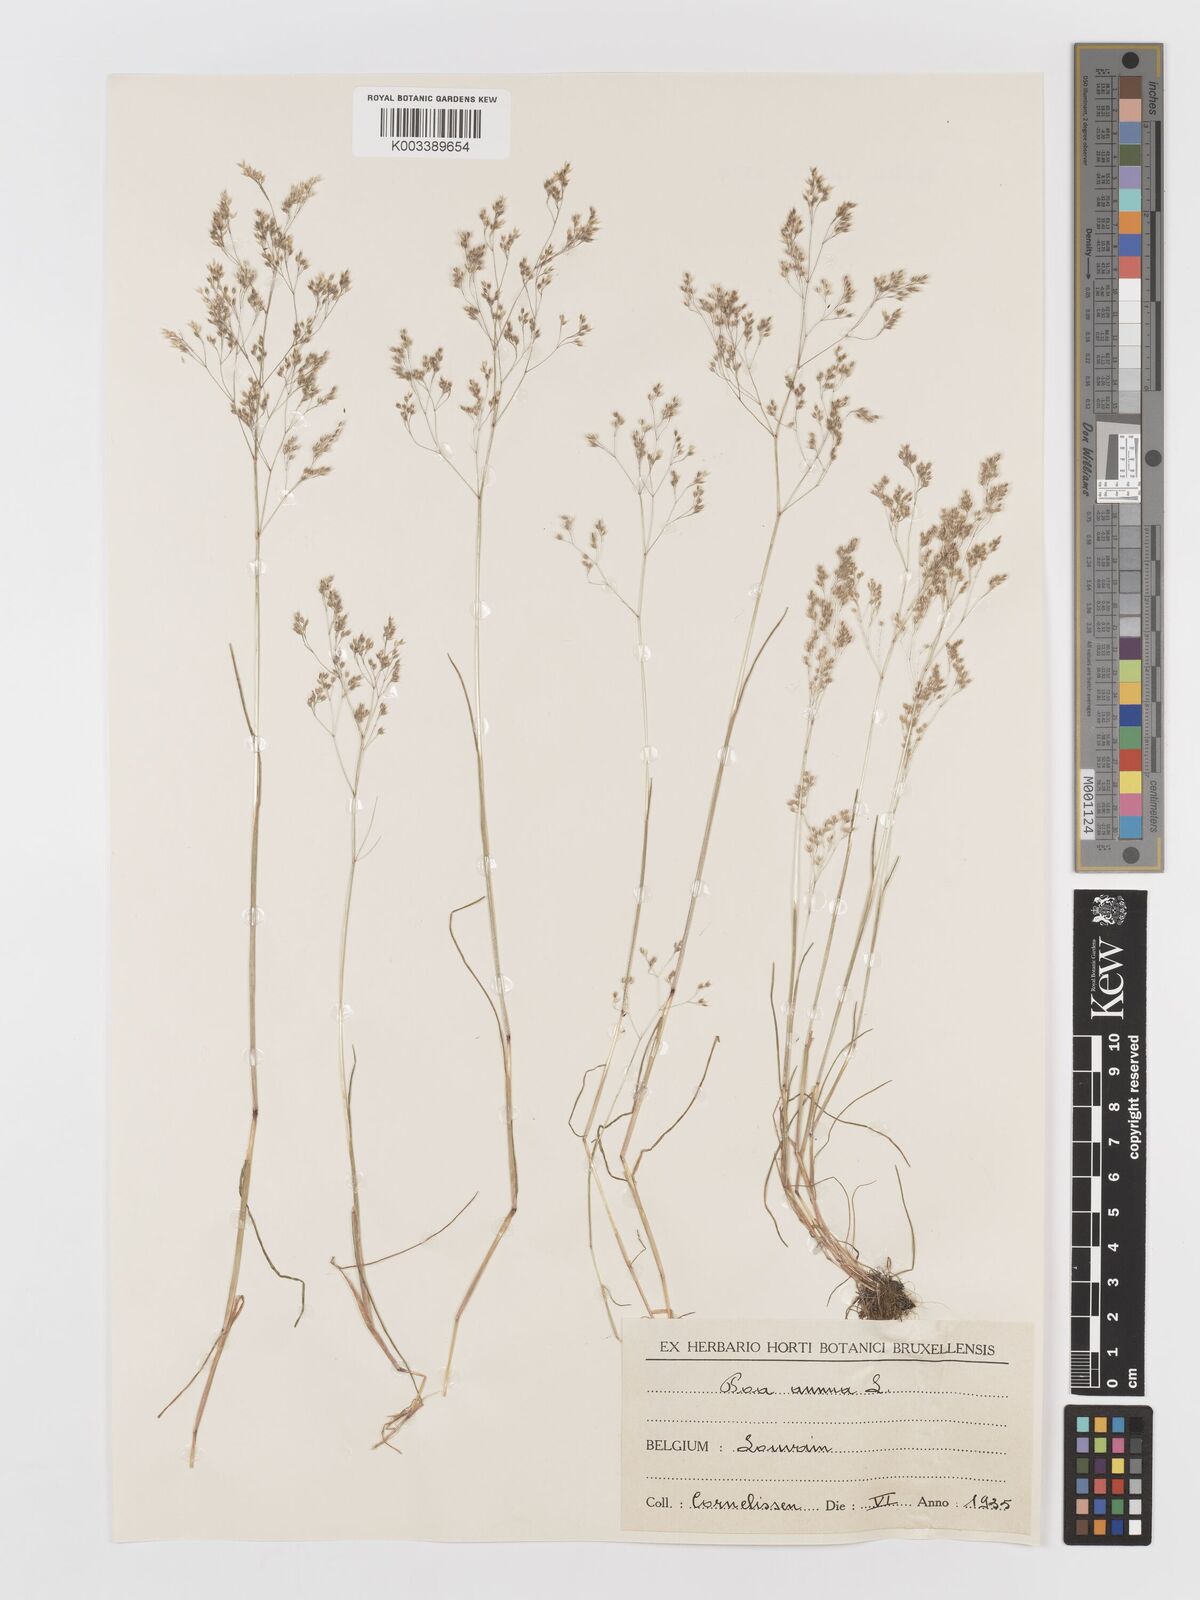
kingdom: Plantae
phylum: Tracheophyta
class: Liliopsida
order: Poales
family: Poaceae
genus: Aira
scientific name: Aira caryophyllea
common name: Silver hairgrass
